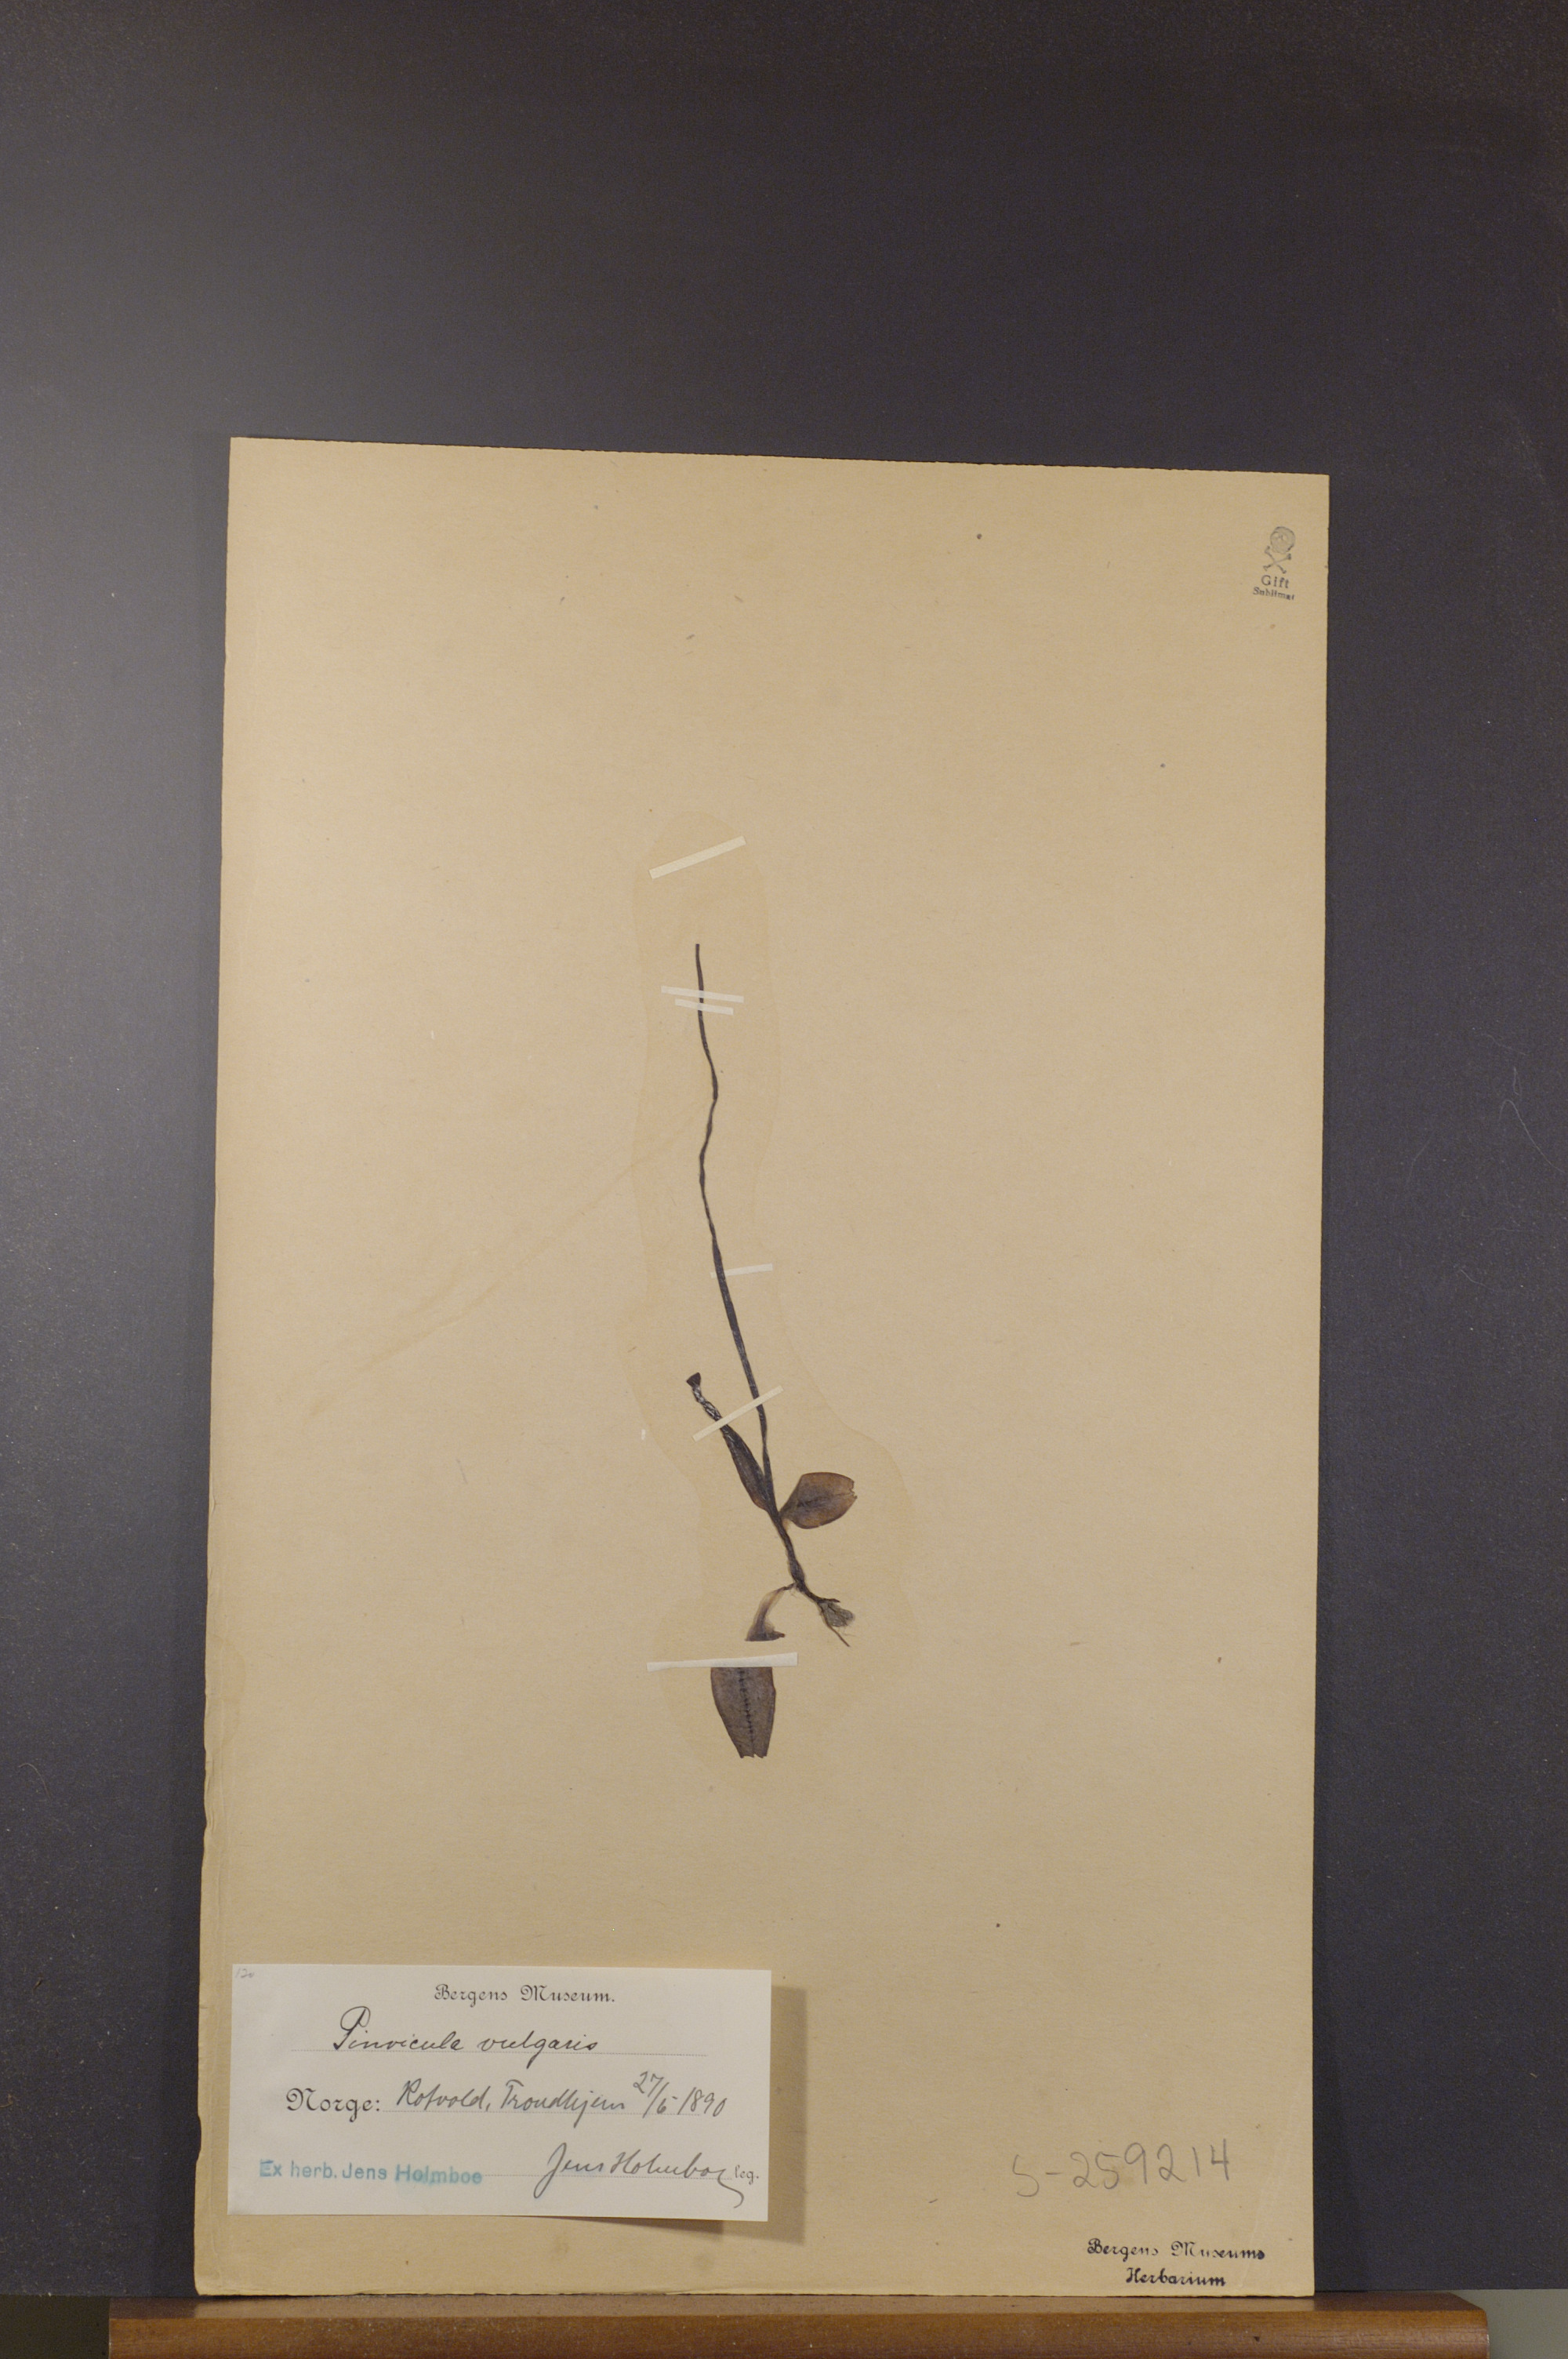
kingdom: Plantae
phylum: Tracheophyta
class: Magnoliopsida
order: Lamiales
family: Lentibulariaceae
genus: Pinguicula
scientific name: Pinguicula vulgaris
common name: Common butterwort
